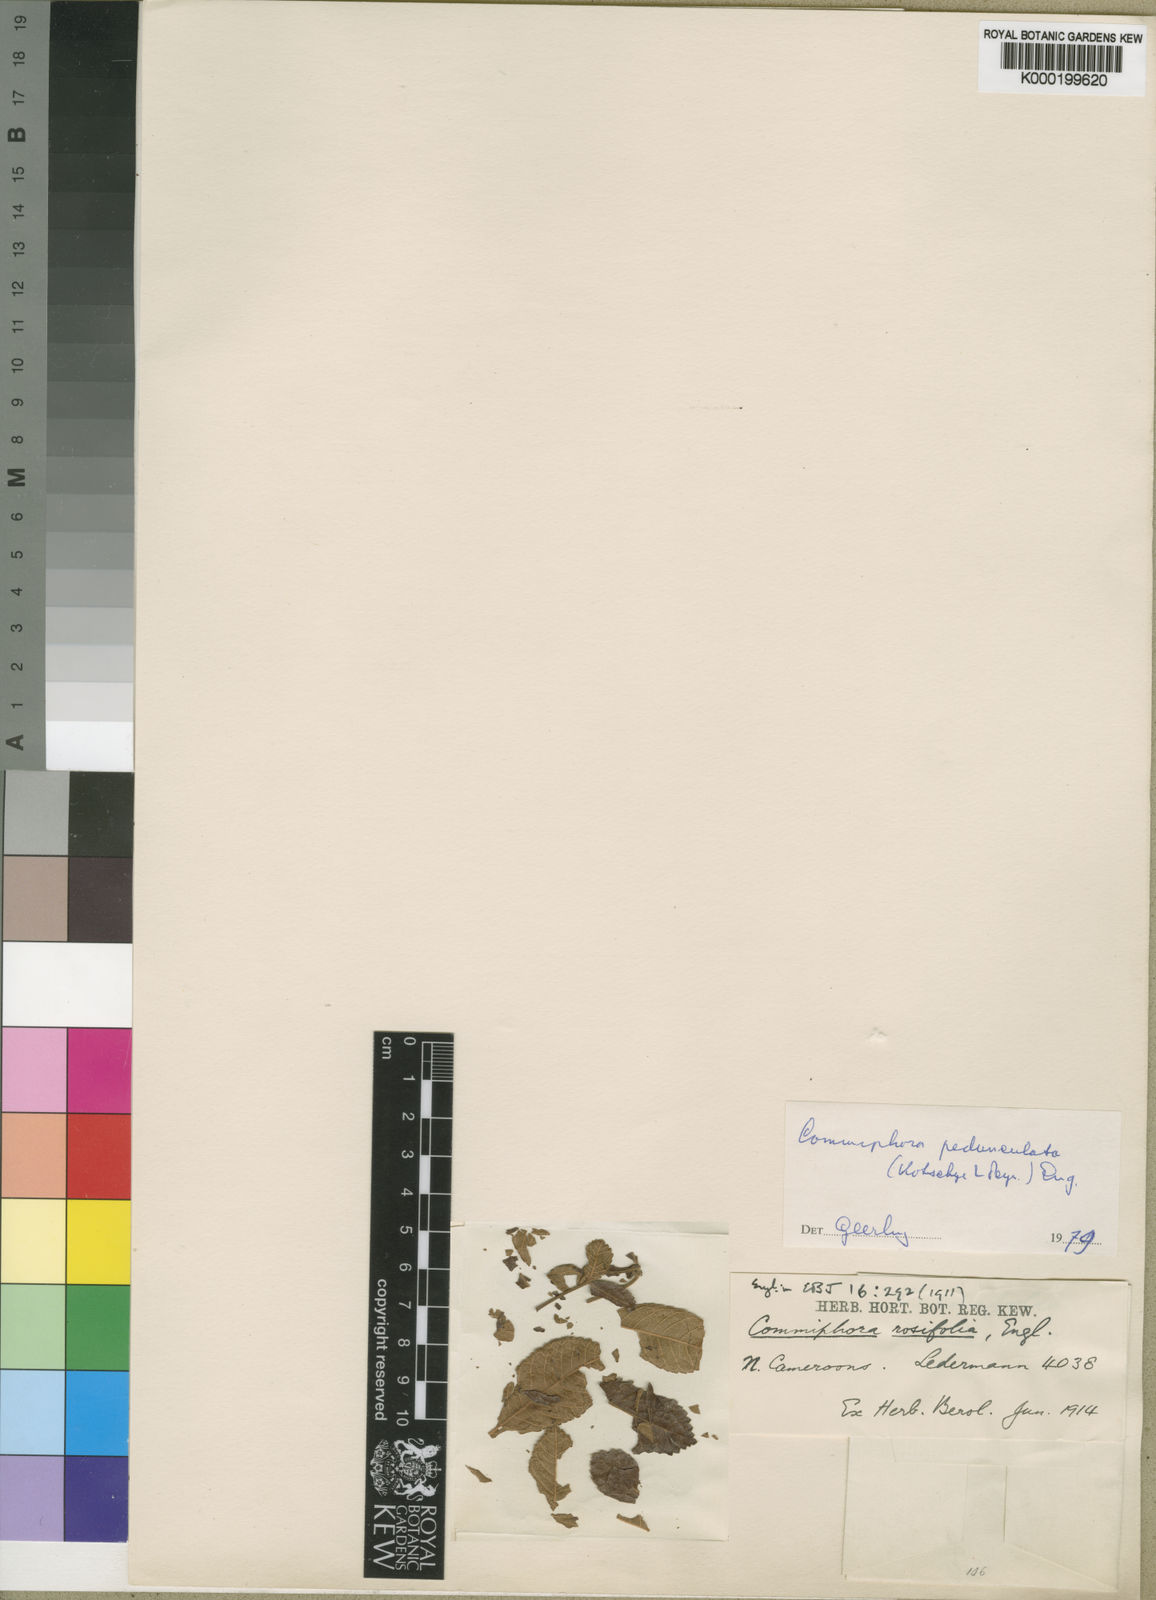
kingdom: Plantae
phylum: Tracheophyta
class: Magnoliopsida
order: Sapindales
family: Burseraceae
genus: Commiphora
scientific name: Commiphora pedunculata
